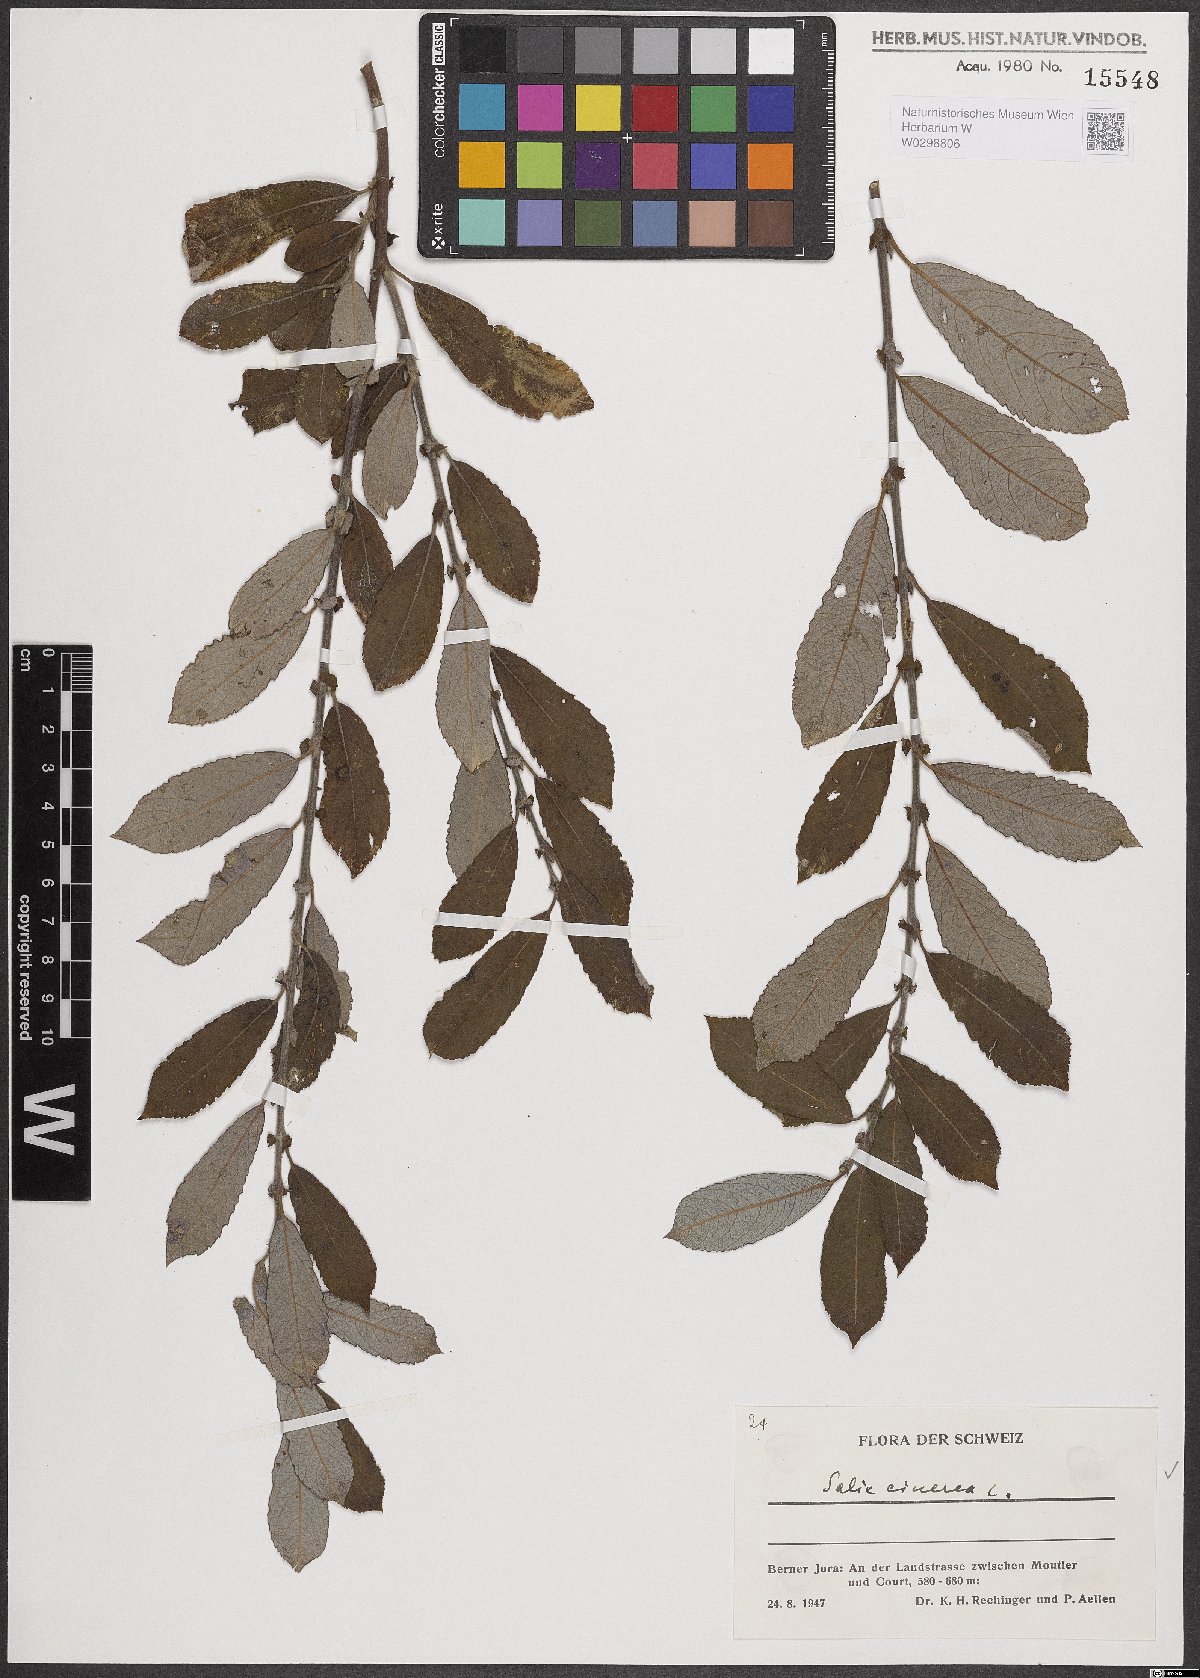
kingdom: Plantae
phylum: Tracheophyta
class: Magnoliopsida
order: Malpighiales
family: Salicaceae
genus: Salix
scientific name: Salix cinerea
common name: Common sallow
